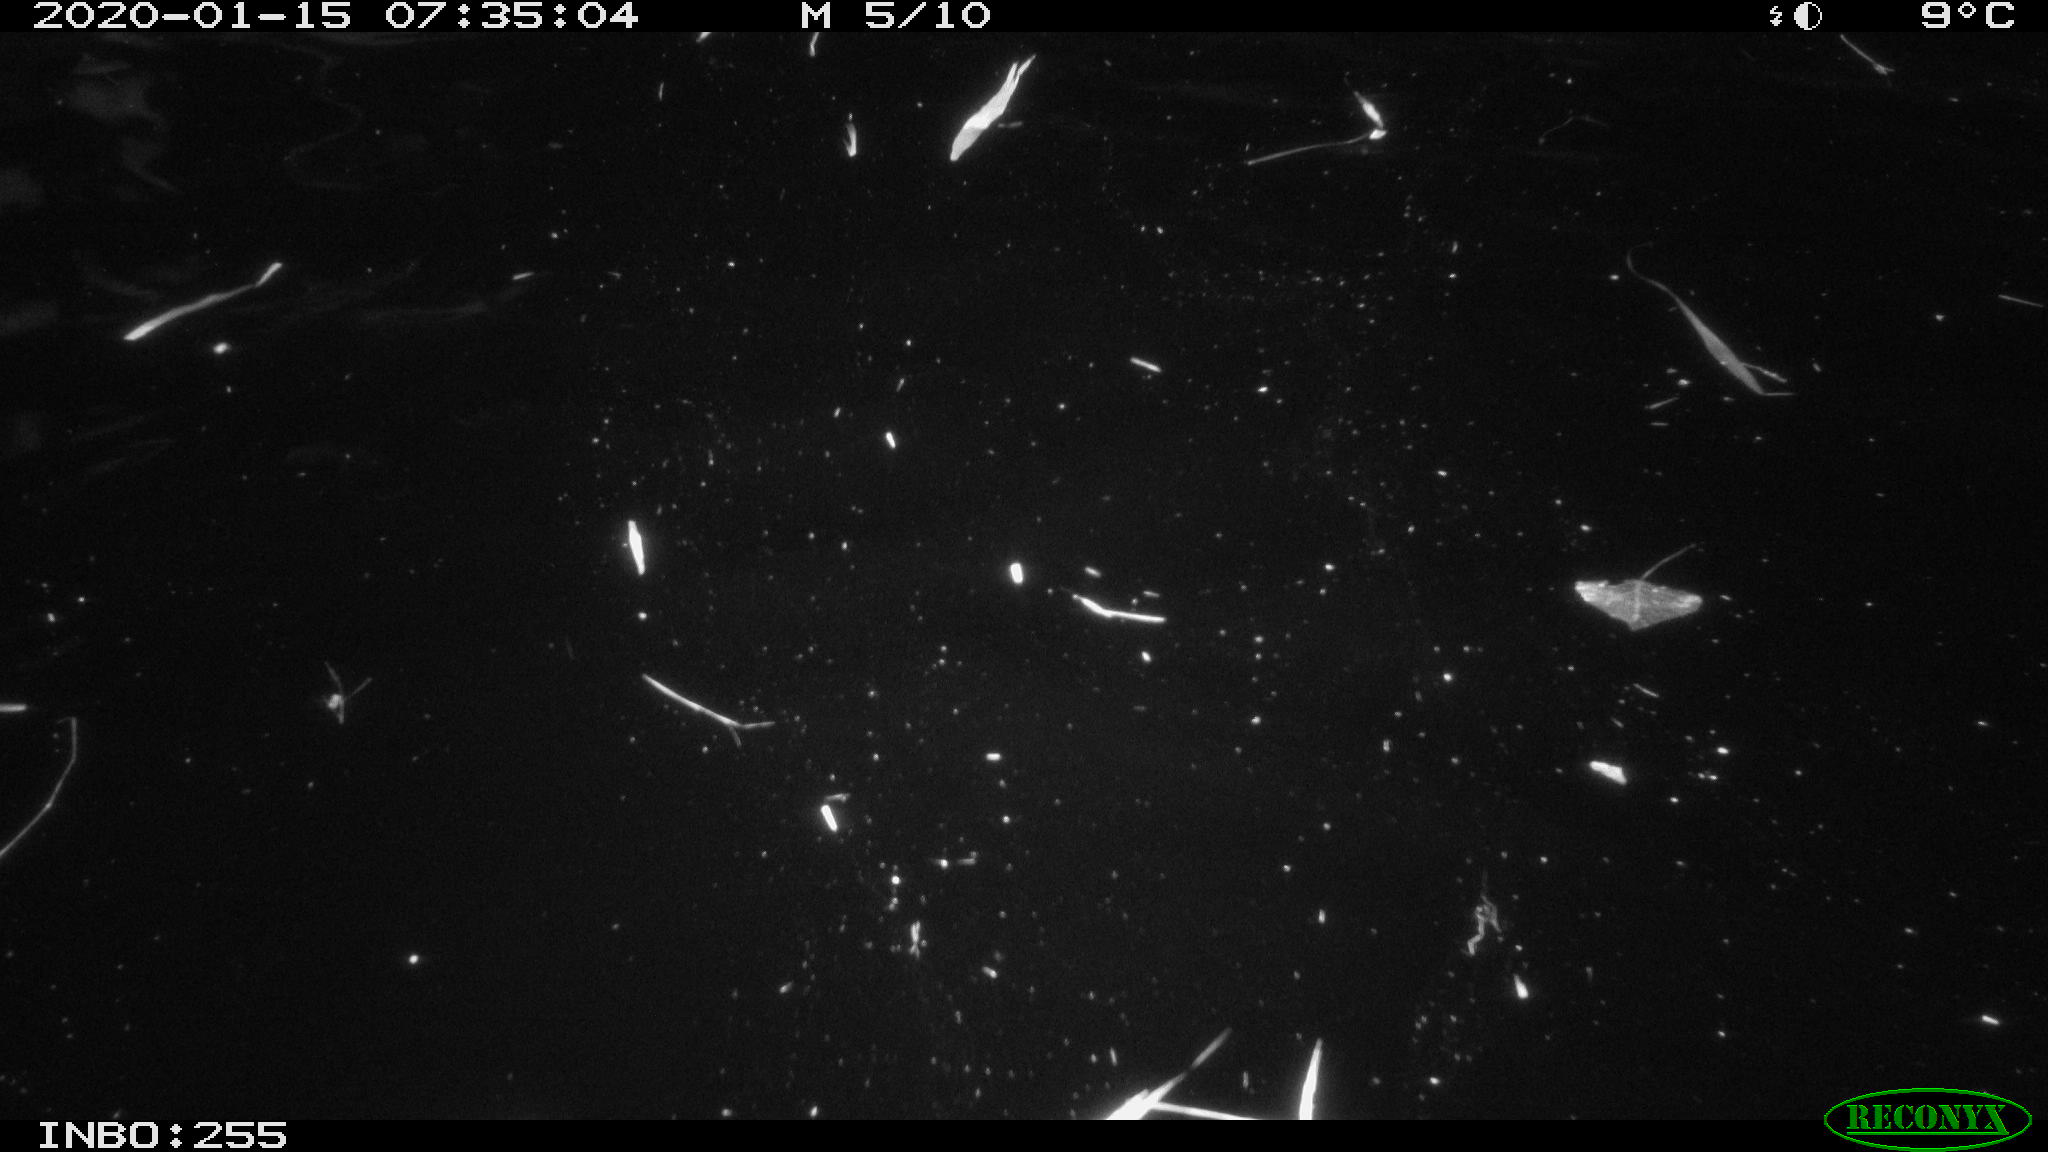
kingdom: Animalia
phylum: Chordata
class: Aves
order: Anseriformes
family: Anatidae
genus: Anas
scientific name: Anas platyrhynchos
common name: Mallard
